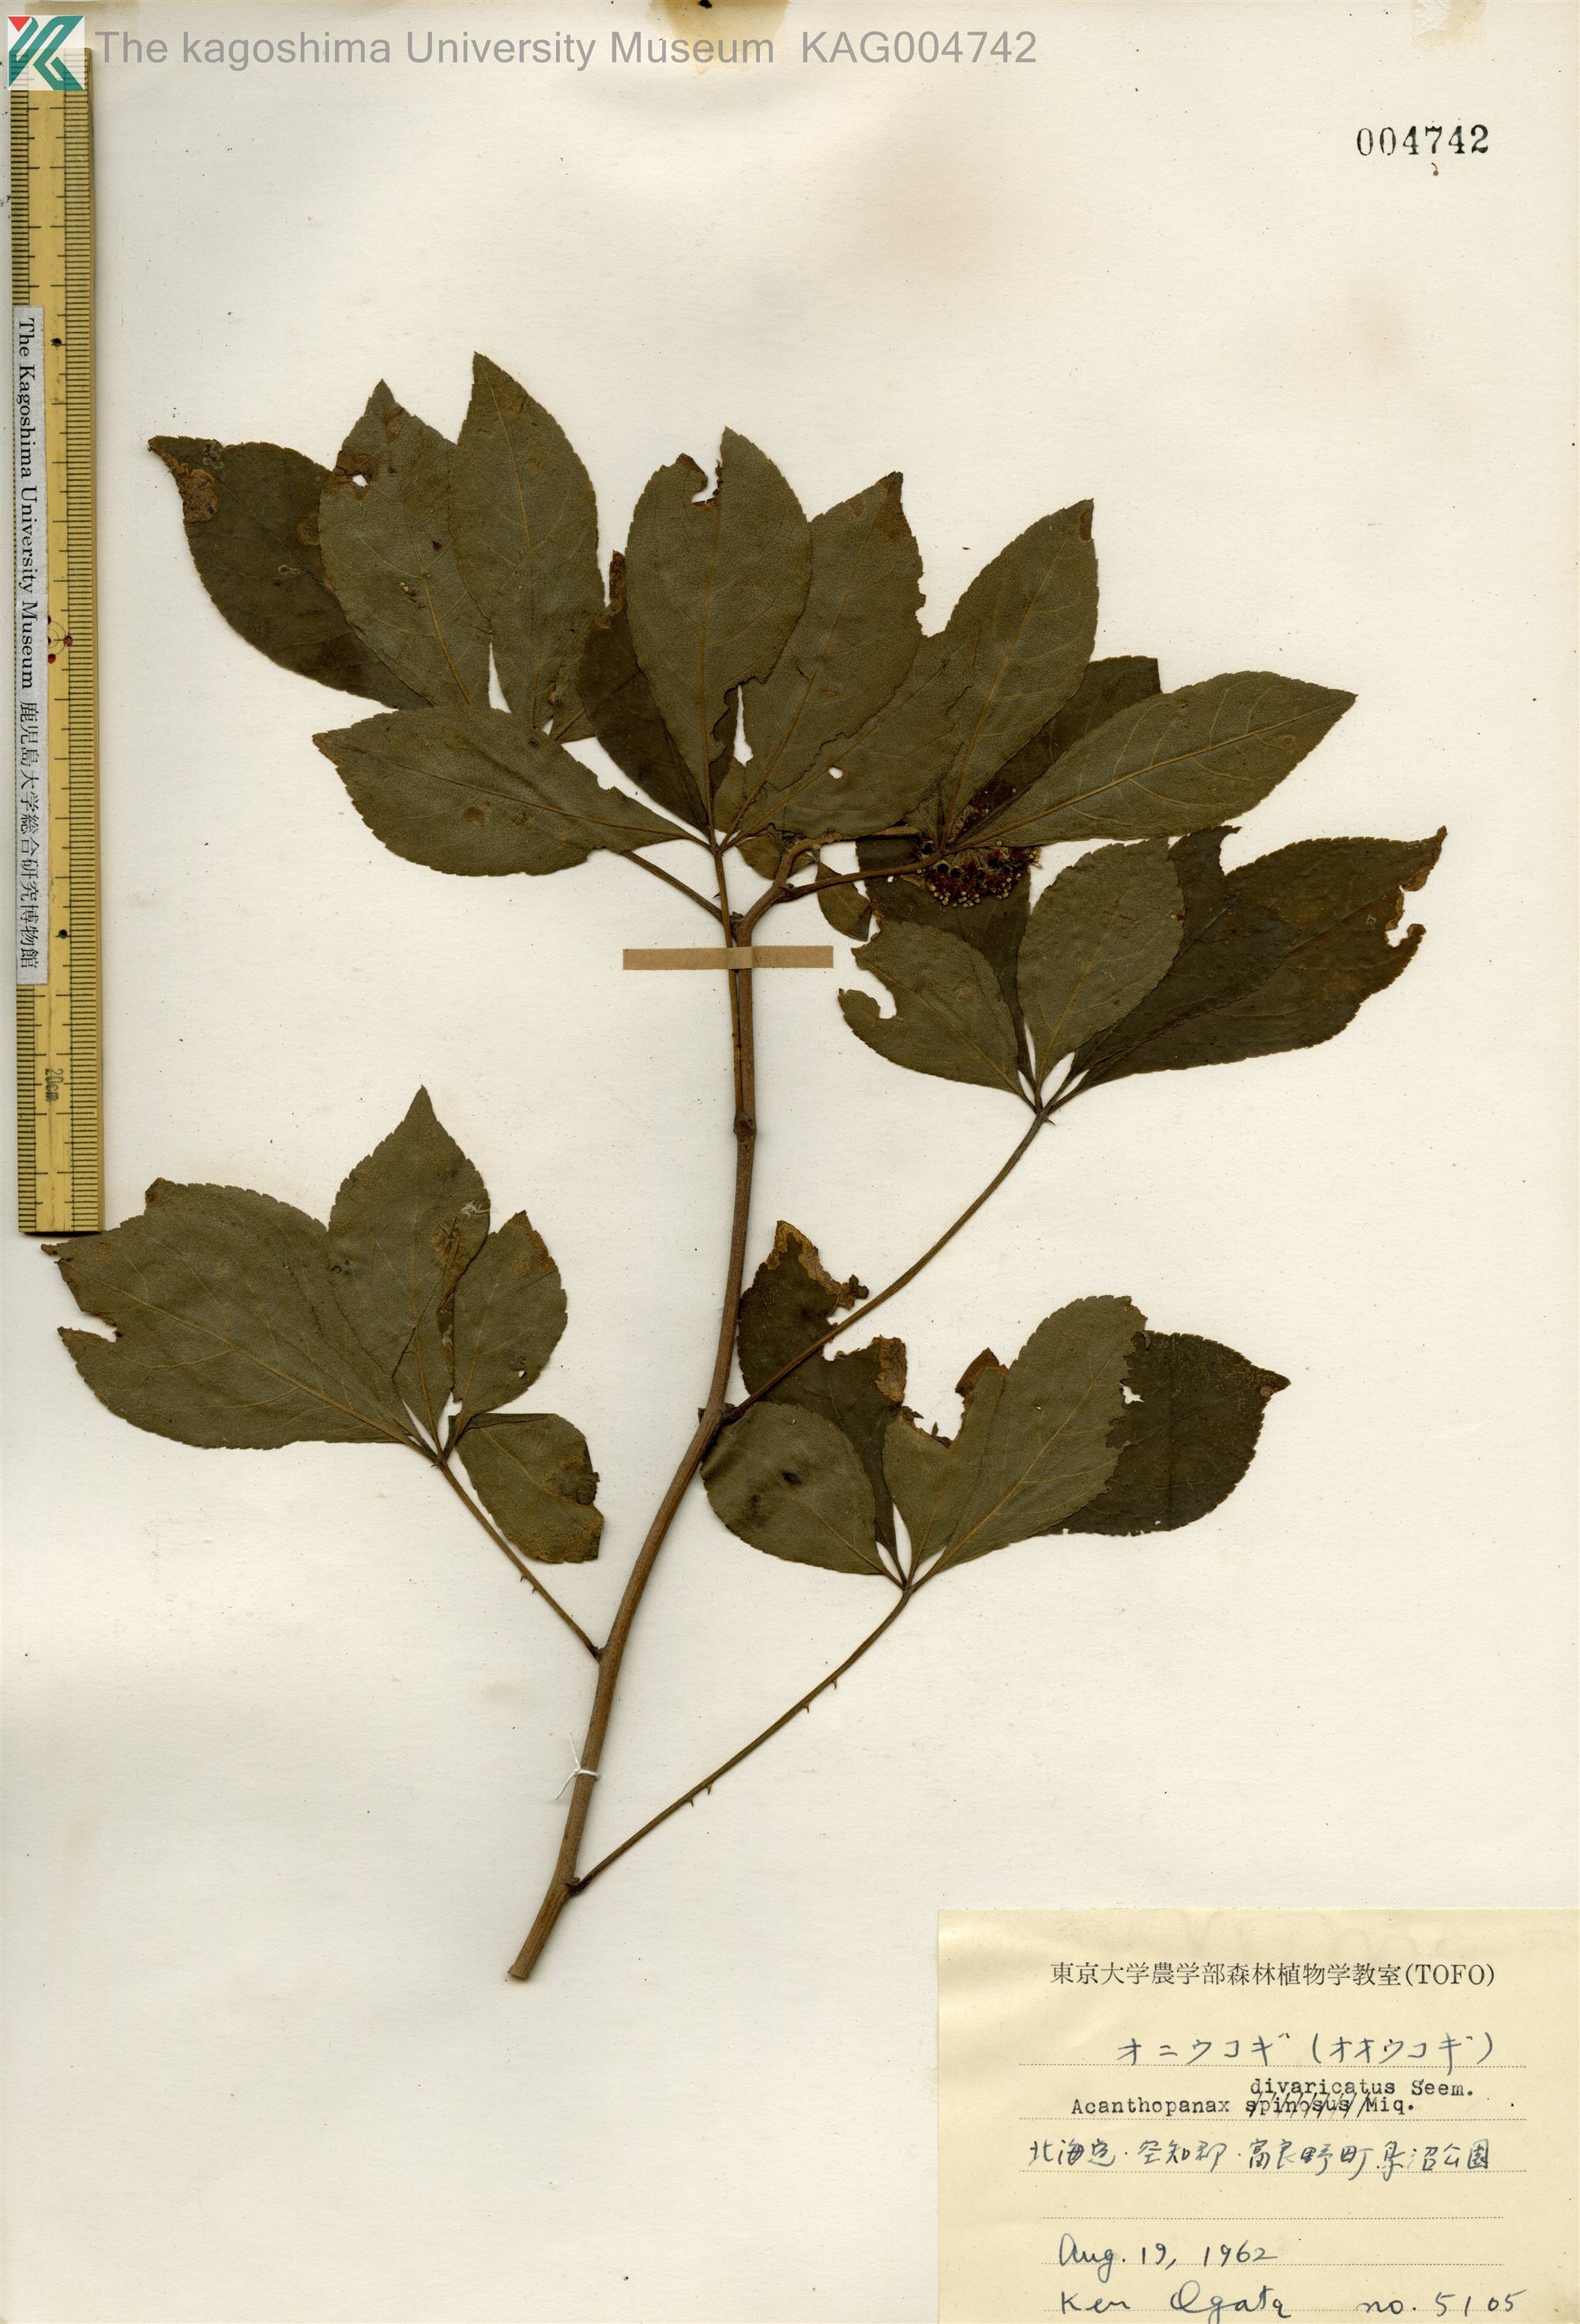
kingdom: Plantae
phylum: Tracheophyta
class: Magnoliopsida
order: Apiales
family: Araliaceae
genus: Eleutherococcus
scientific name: Eleutherococcus divaricatus
